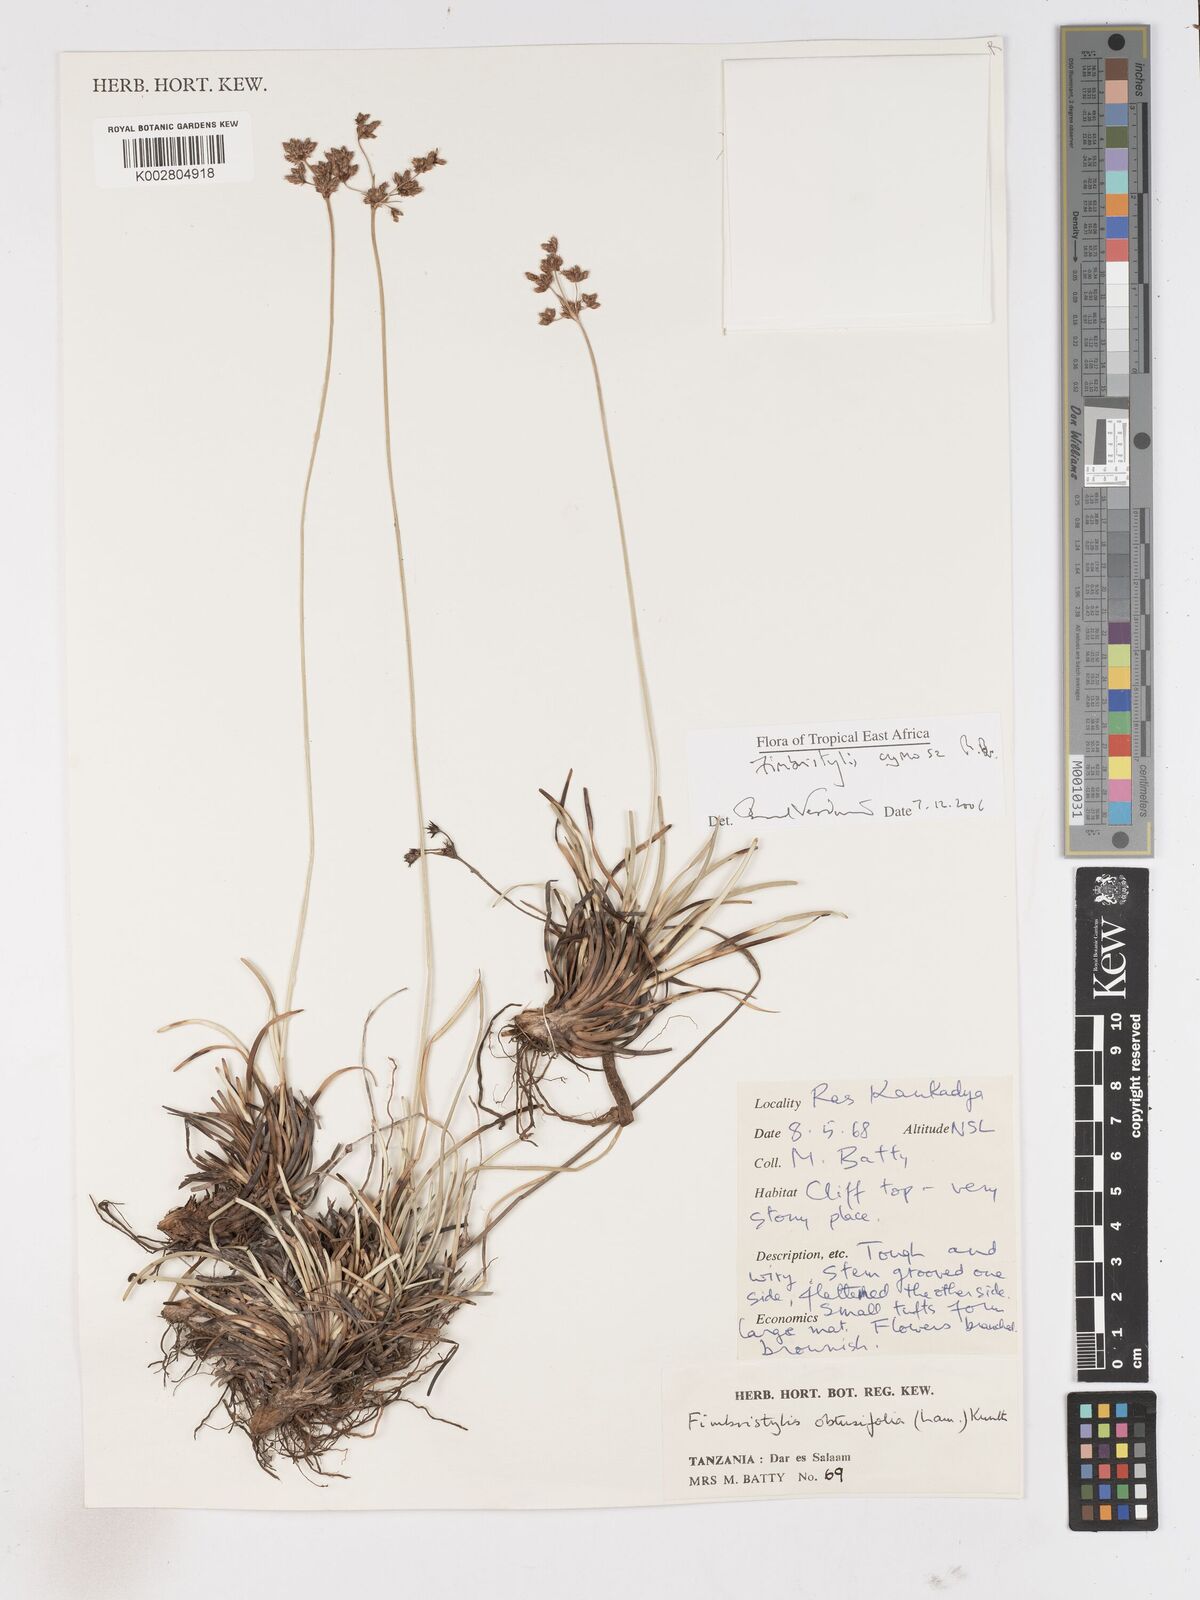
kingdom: Plantae
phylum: Tracheophyta
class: Liliopsida
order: Poales
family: Cyperaceae
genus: Fimbristylis
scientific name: Fimbristylis cymosa
